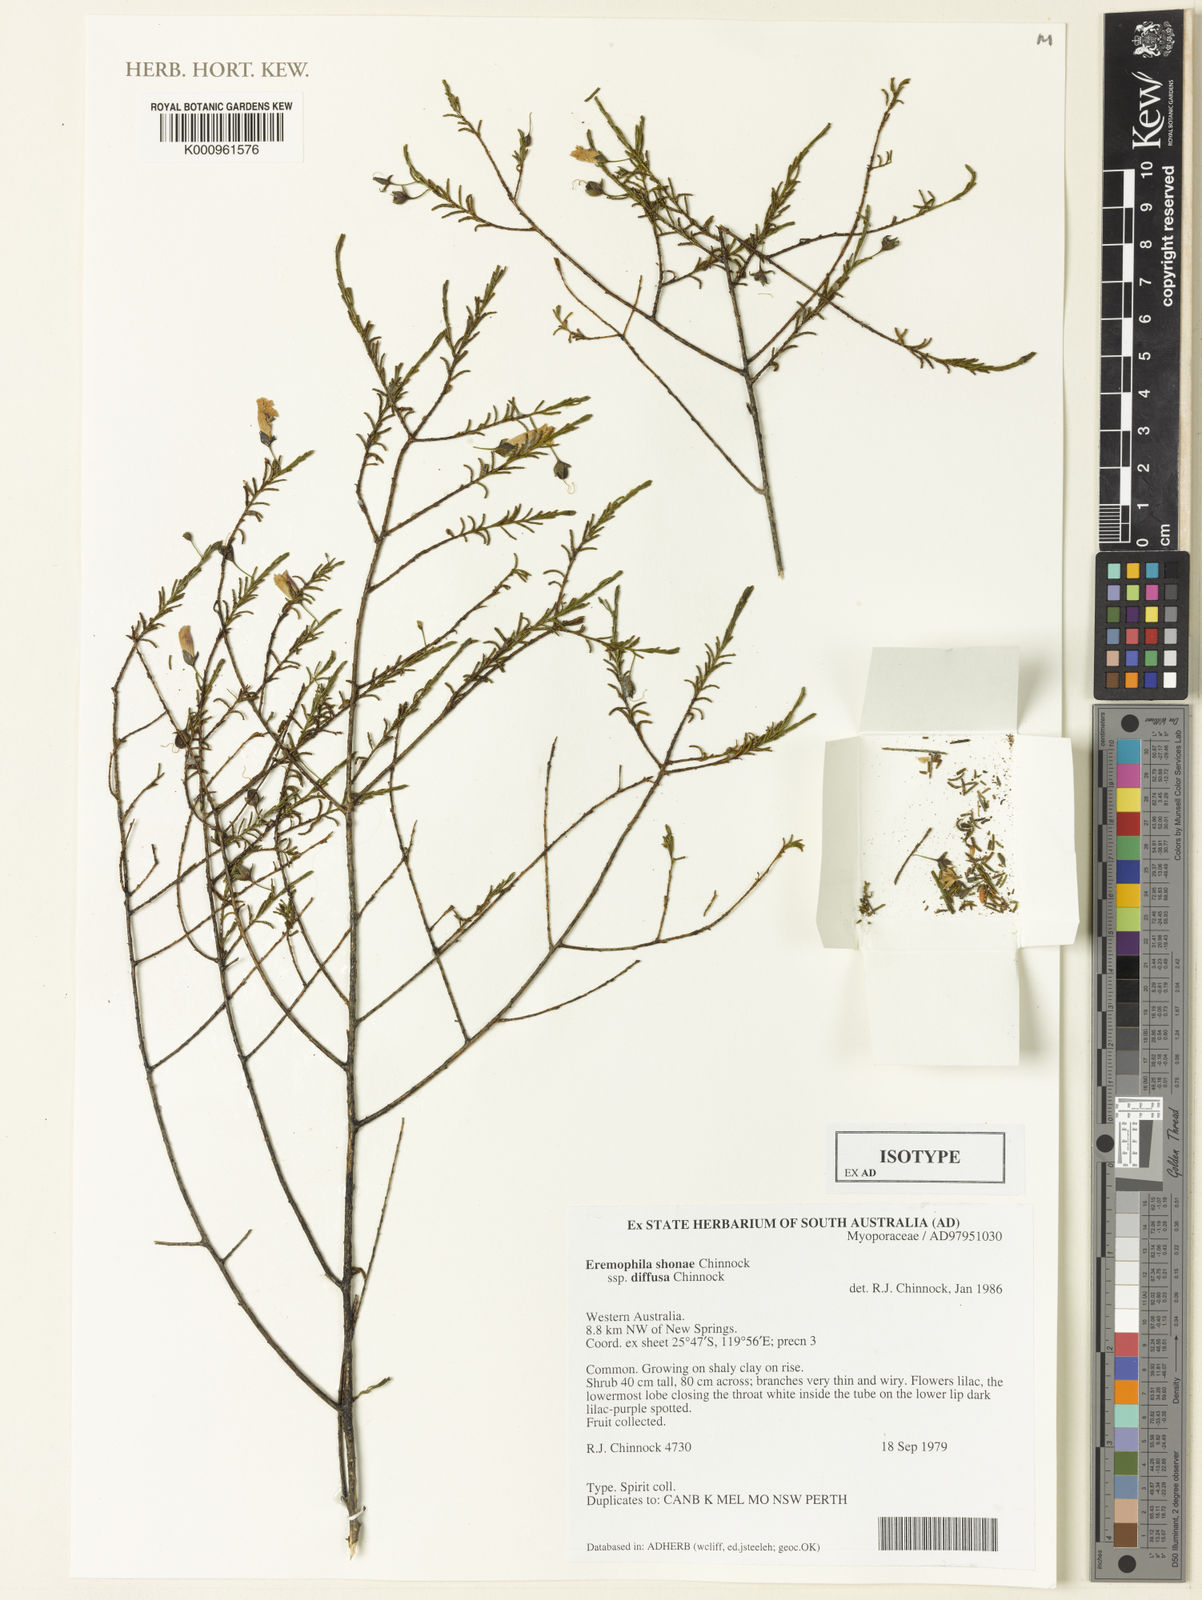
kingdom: Plantae
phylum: Tracheophyta
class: Magnoliopsida
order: Lamiales
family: Scrophulariaceae
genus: Eremophila
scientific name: Eremophila shonae
